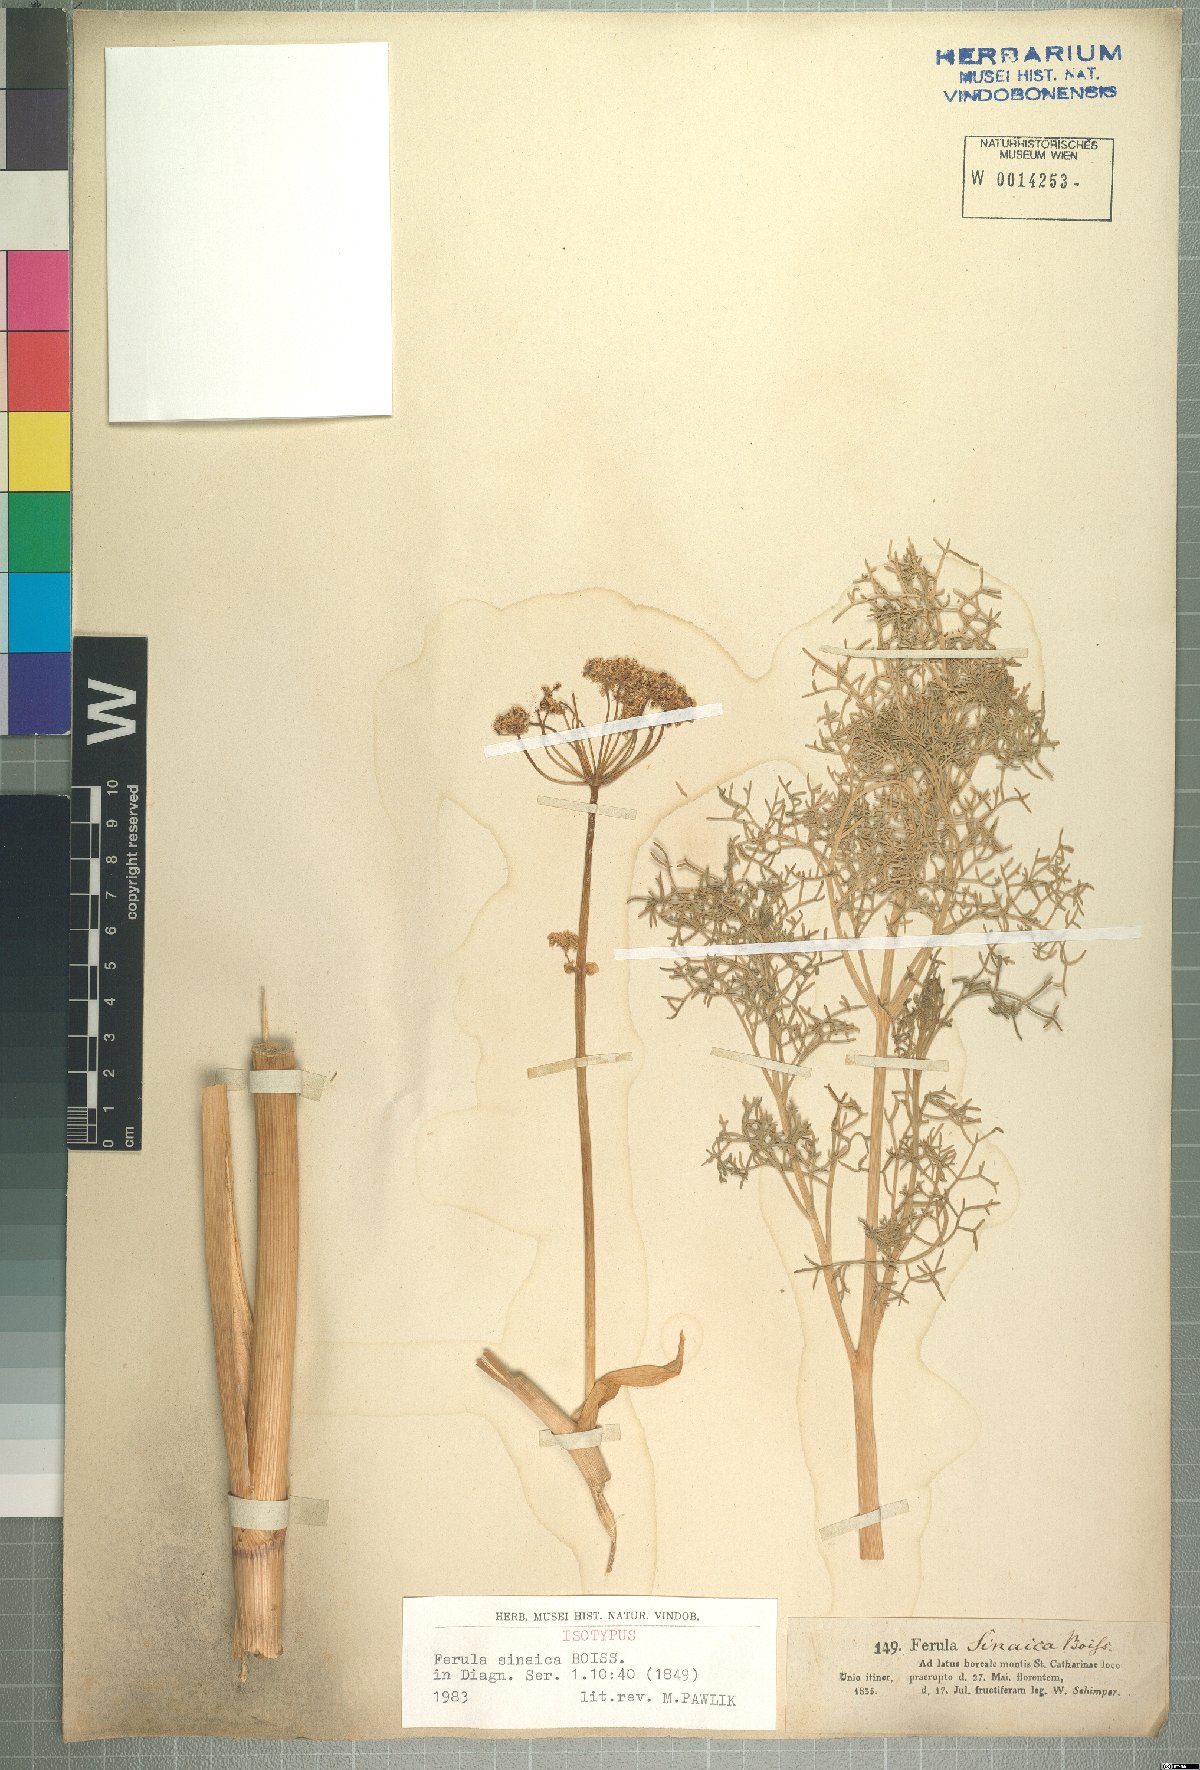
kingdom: Plantae
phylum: Tracheophyta
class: Magnoliopsida
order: Apiales
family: Apiaceae
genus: Ferula
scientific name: Ferula sinaica
